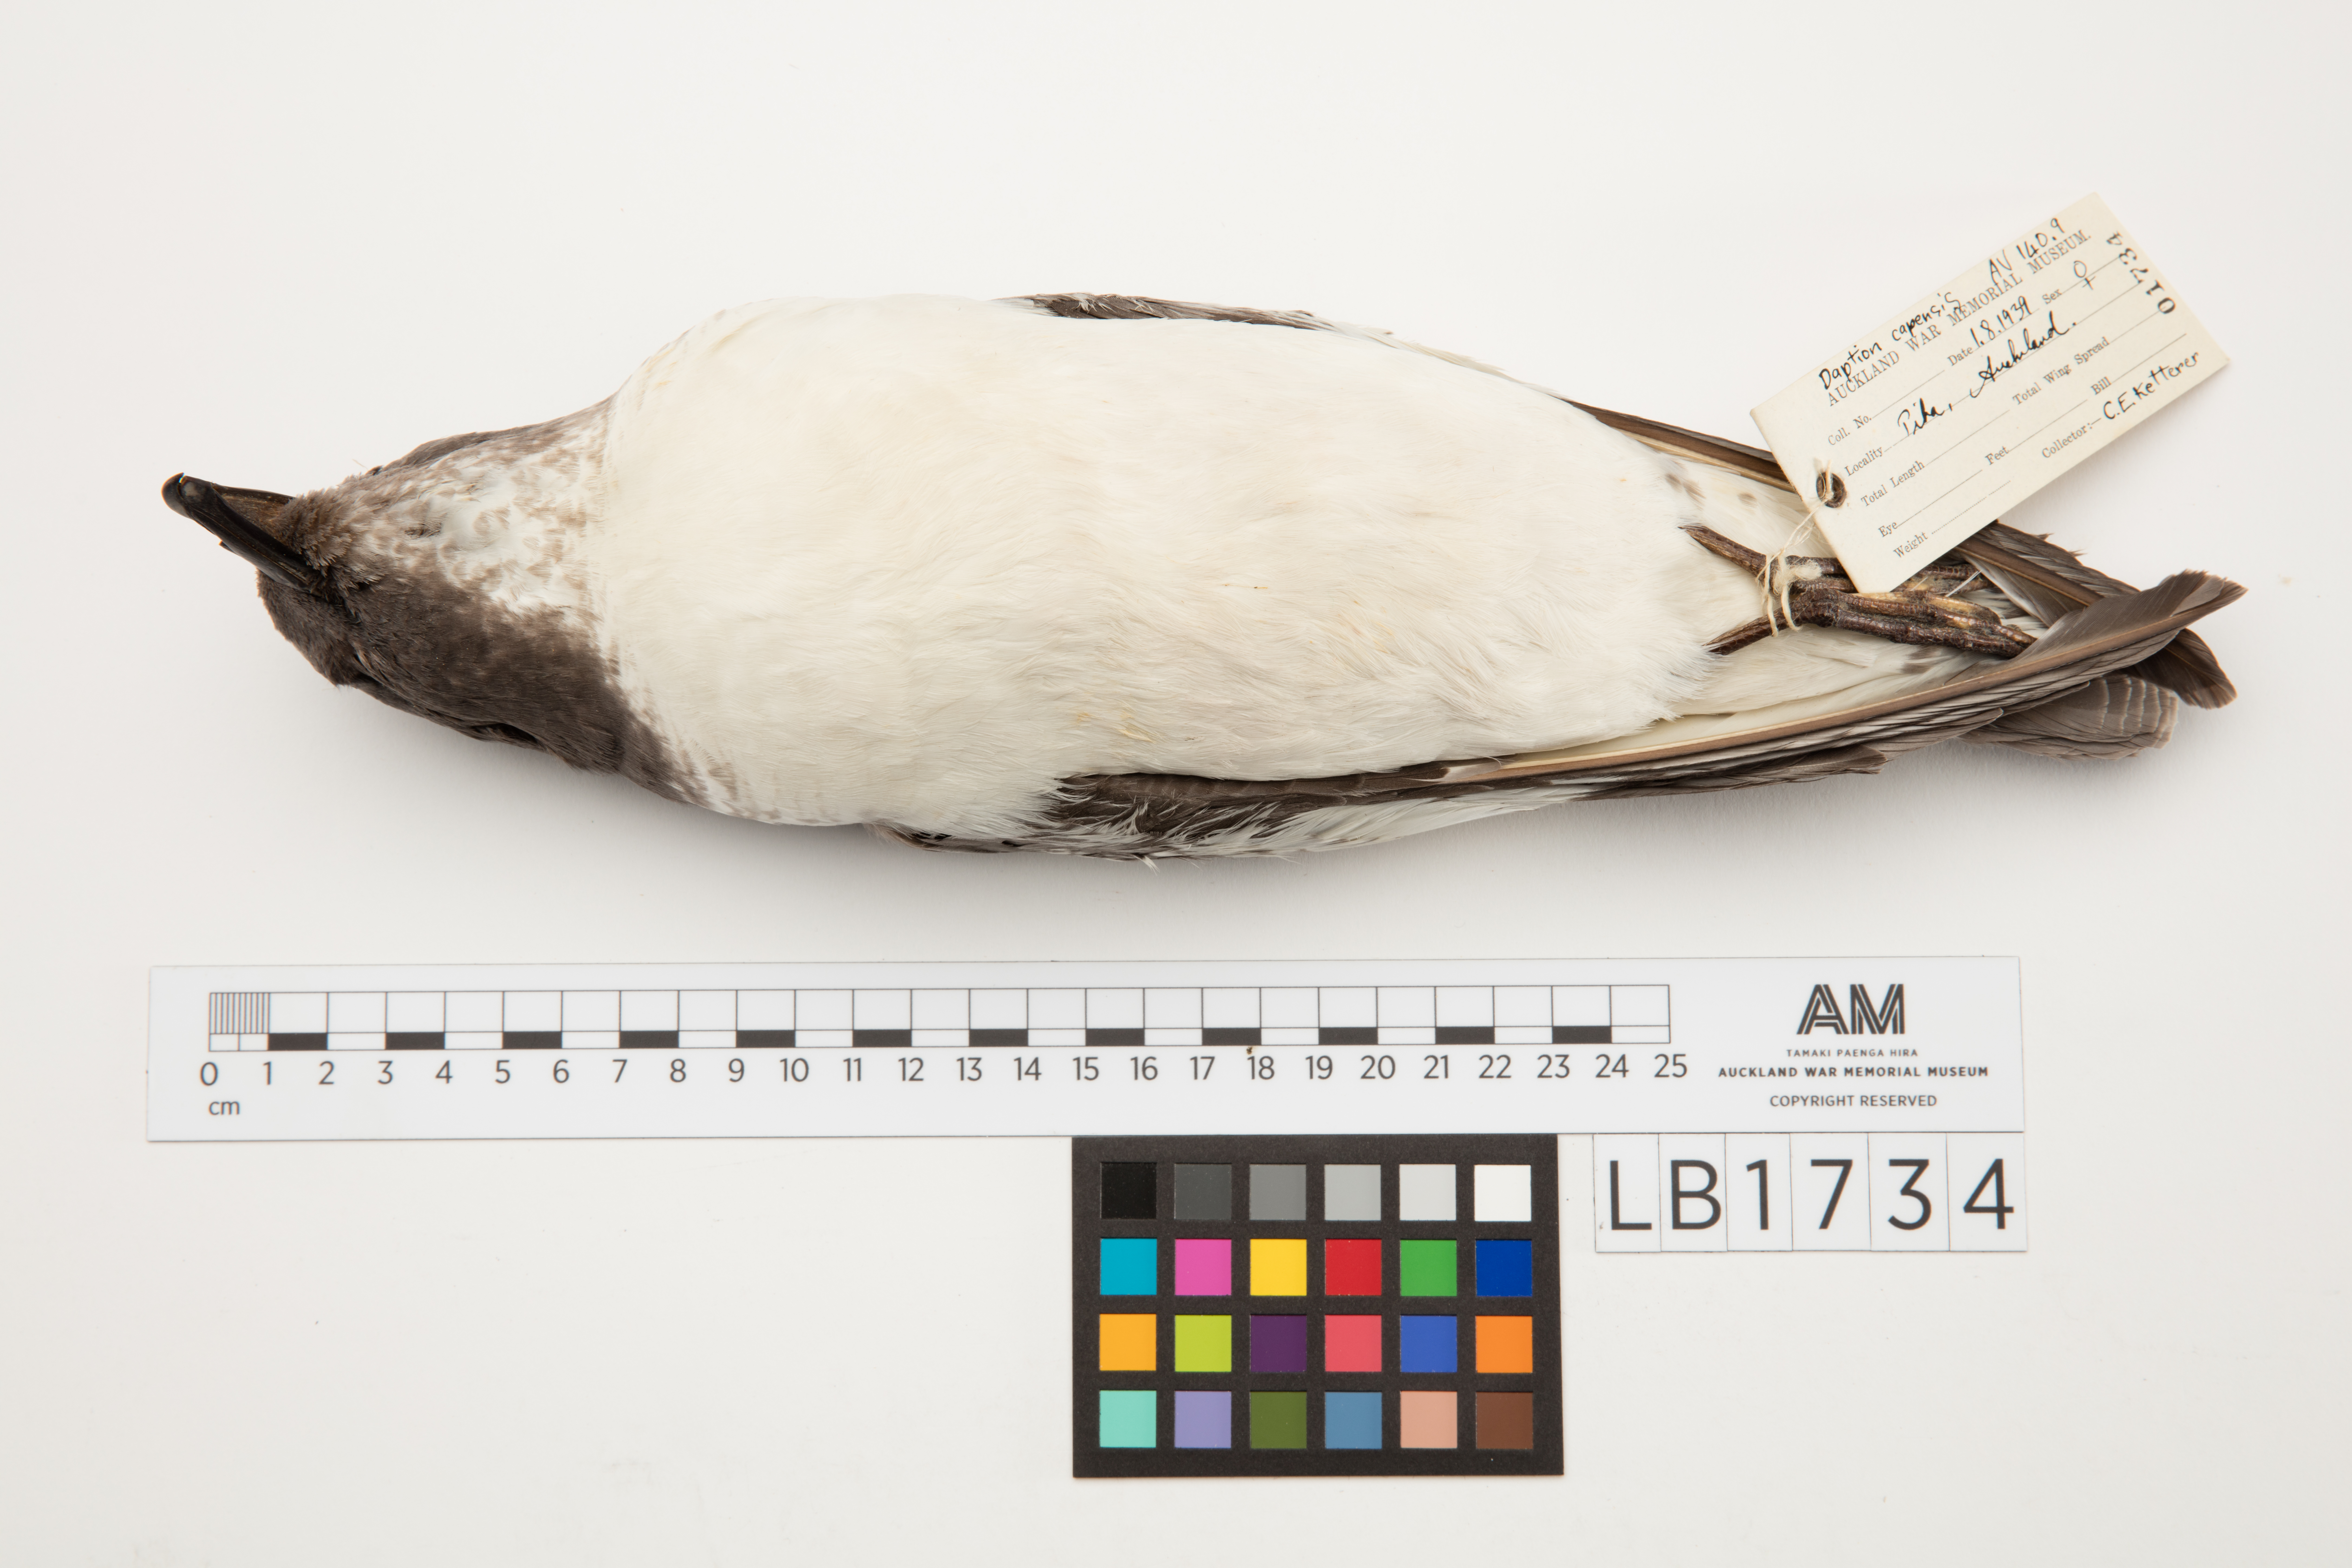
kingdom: Animalia
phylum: Chordata
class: Aves
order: Procellariiformes
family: Procellariidae
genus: Daption
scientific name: Daption capense
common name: Cape petrel
